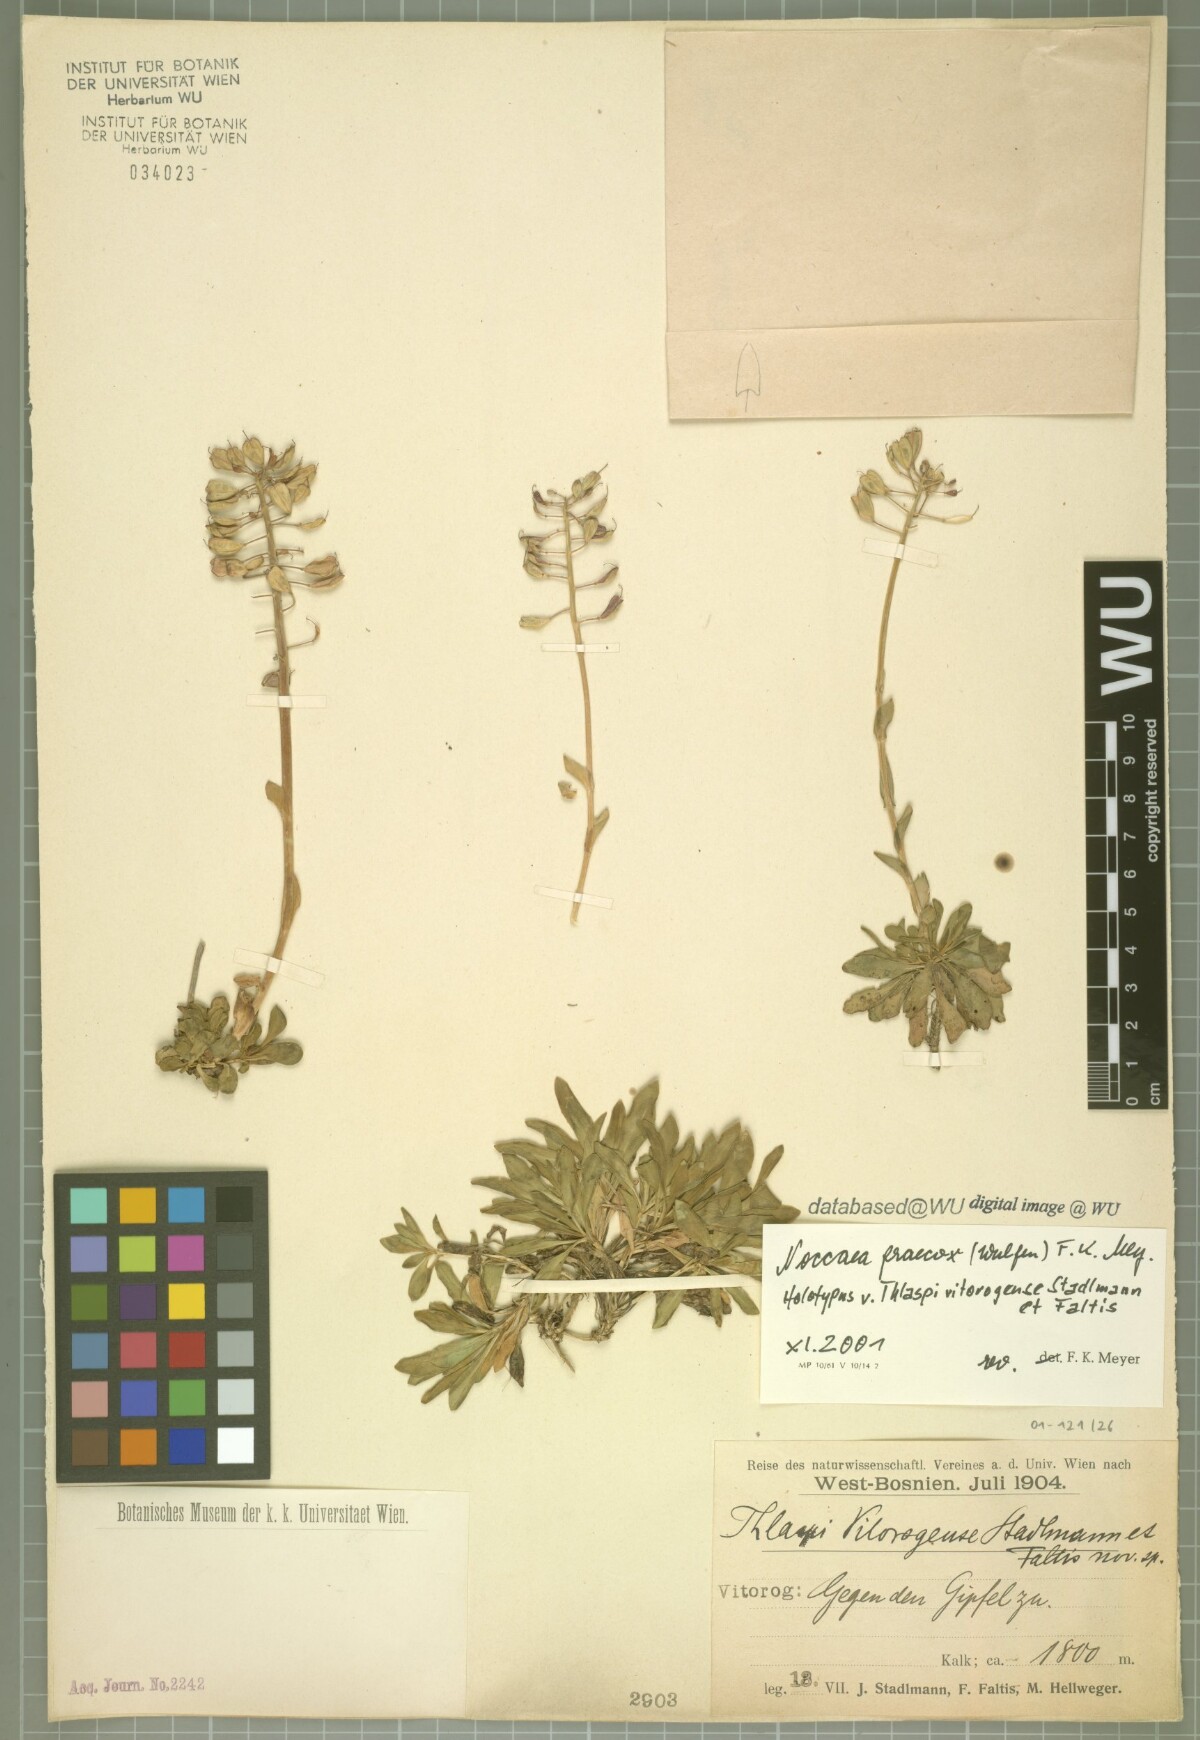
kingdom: Plantae
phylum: Tracheophyta
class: Magnoliopsida
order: Brassicales
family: Brassicaceae
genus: Noccaea
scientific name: Noccaea praecox
